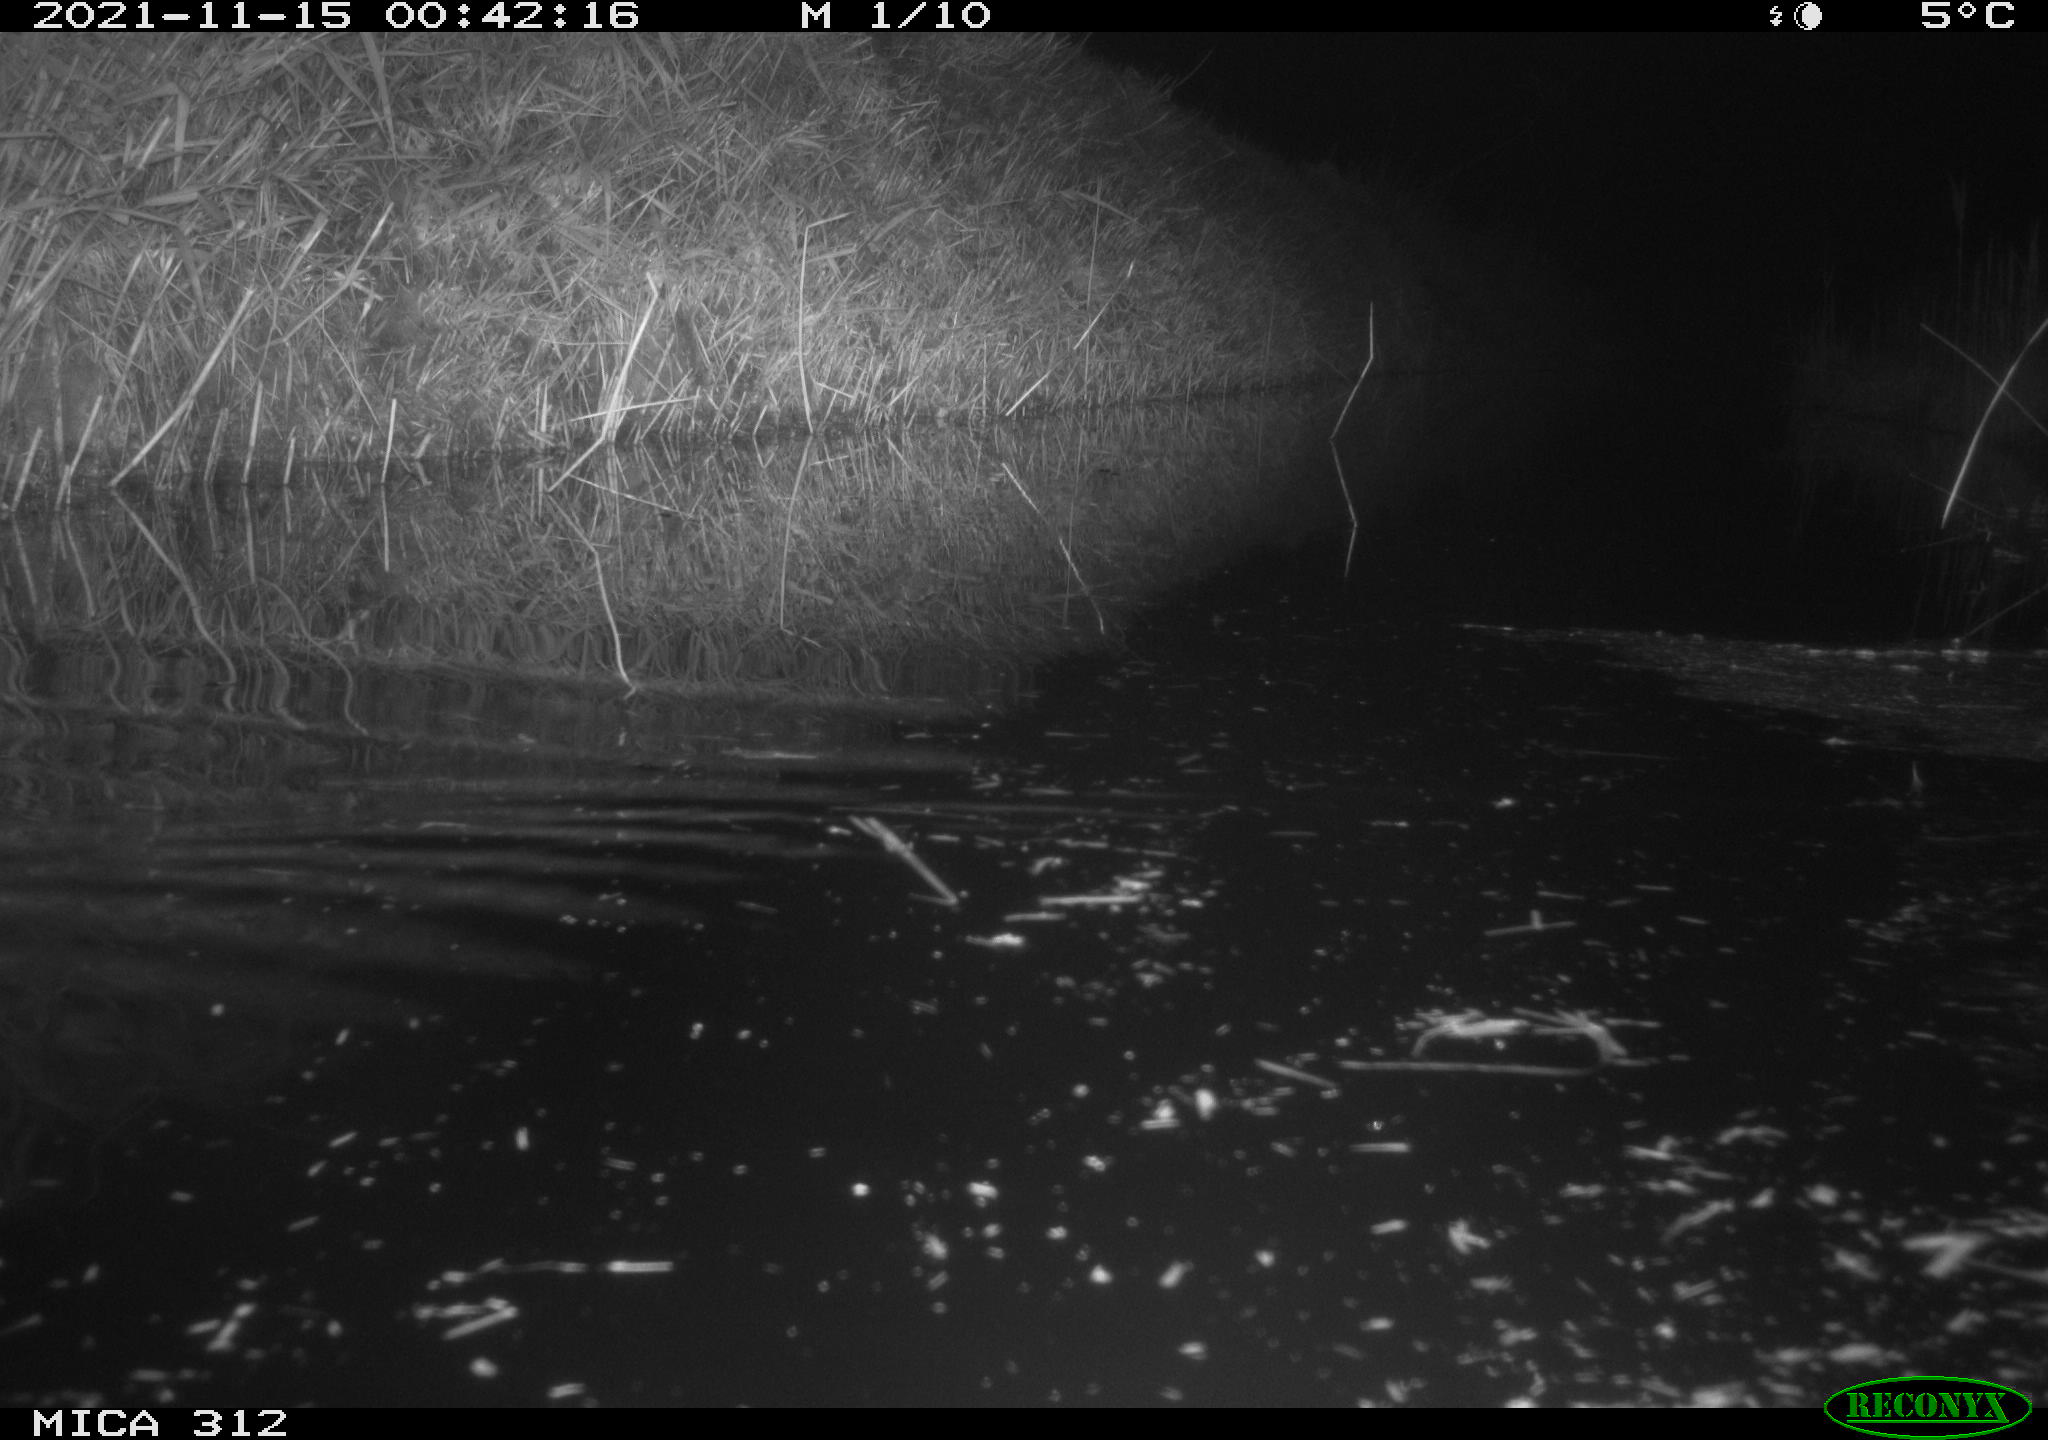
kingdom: Animalia
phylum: Chordata
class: Mammalia
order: Rodentia
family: Muridae
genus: Rattus
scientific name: Rattus norvegicus
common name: Brown rat
